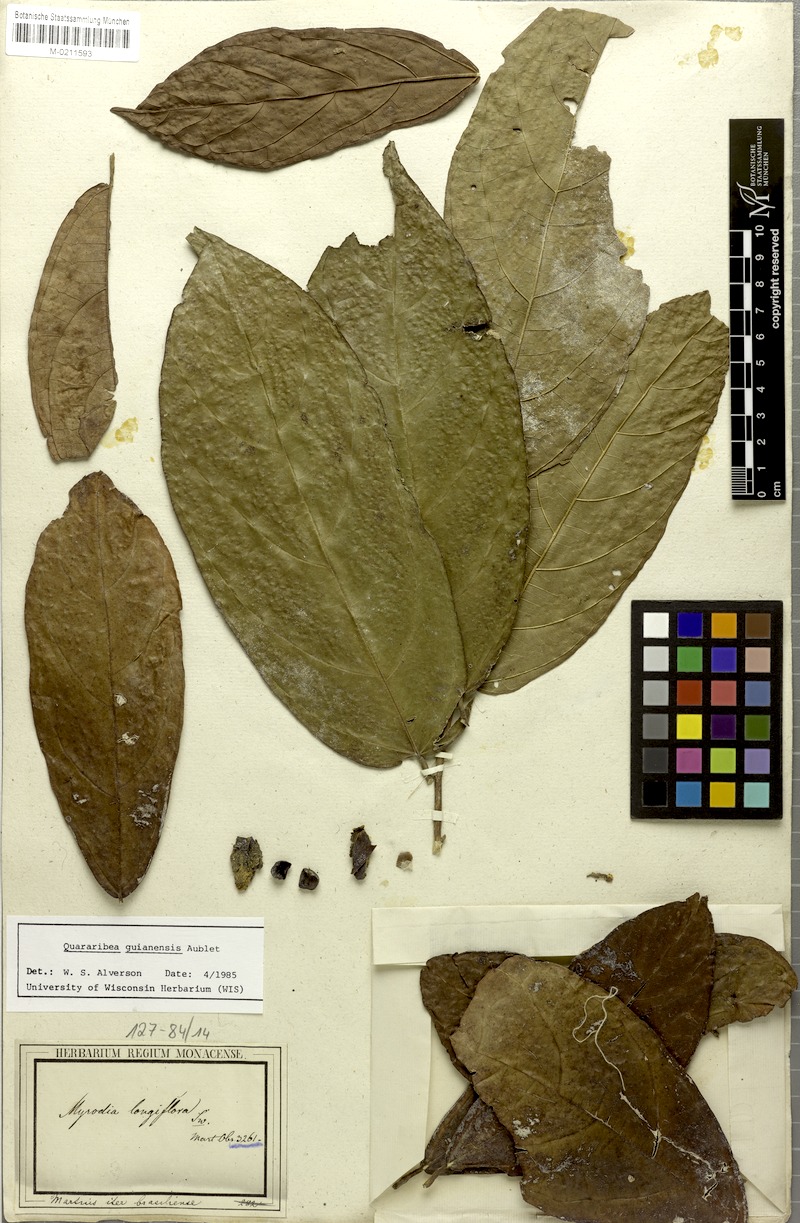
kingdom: Plantae
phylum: Tracheophyta
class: Magnoliopsida
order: Malvales
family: Malvaceae
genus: Quararibea
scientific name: Quararibea guianensis
